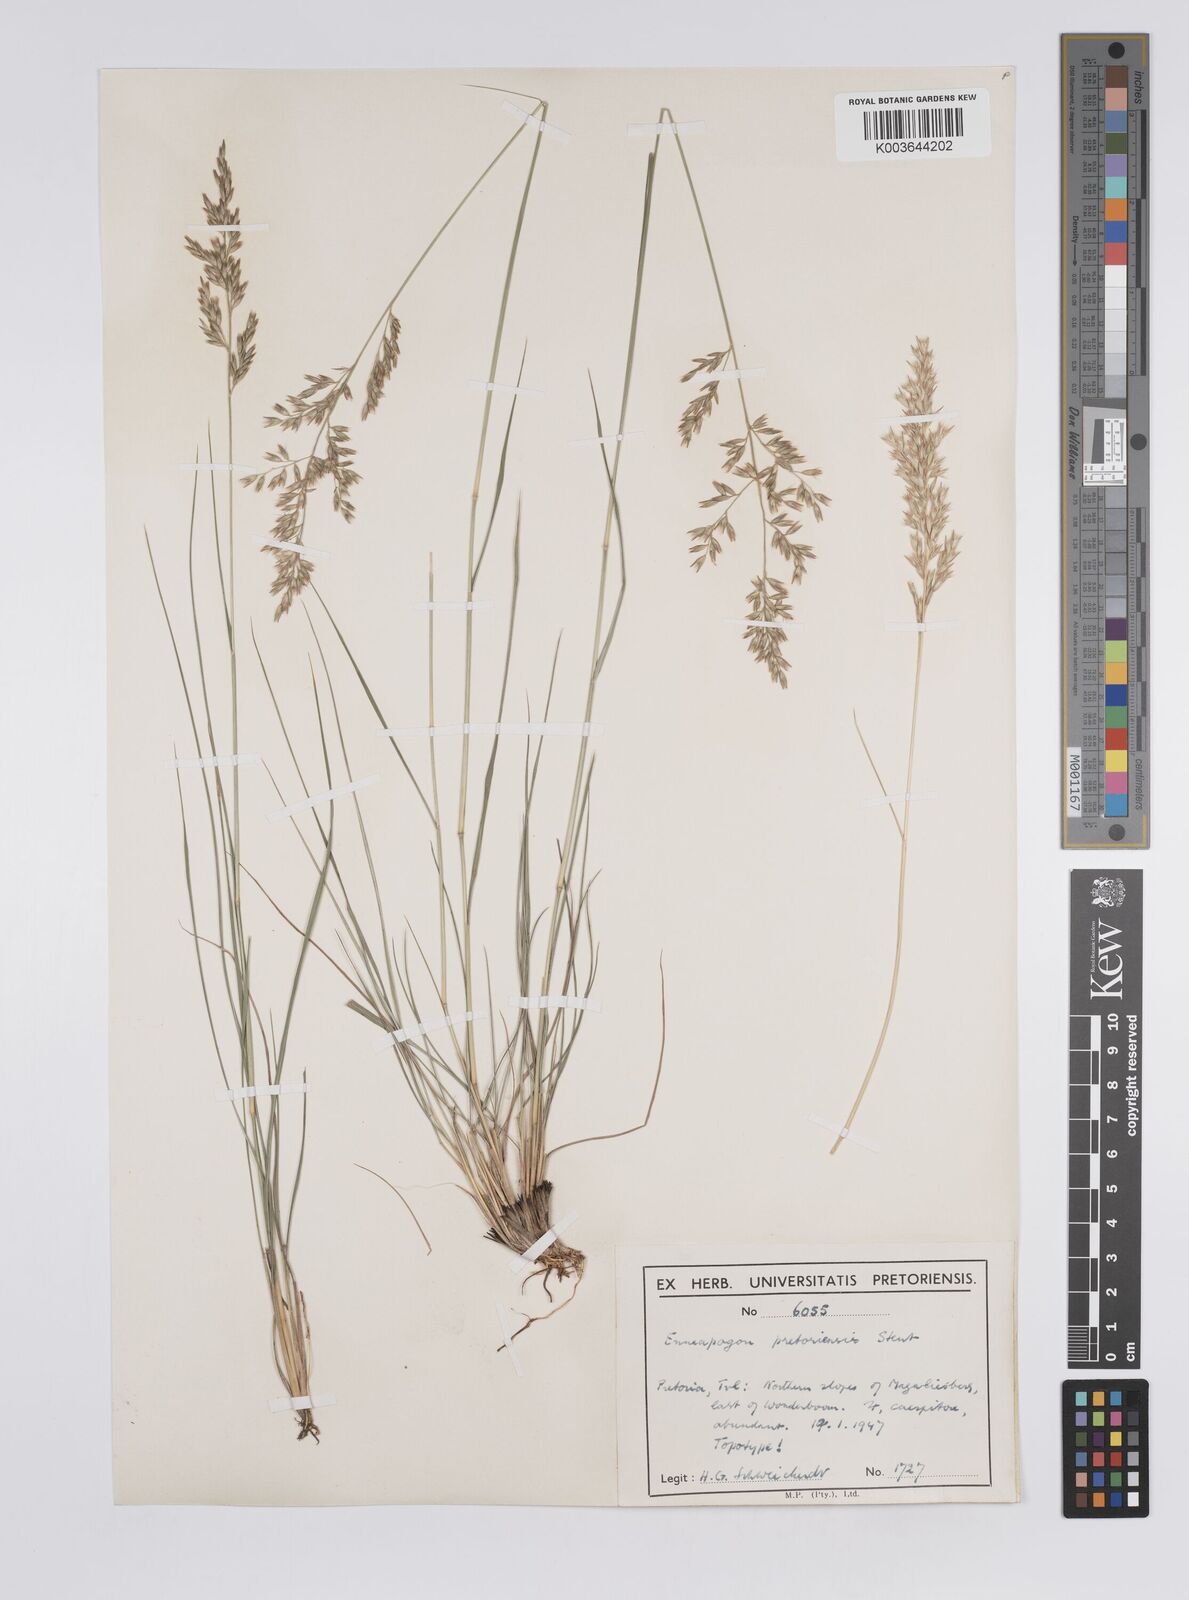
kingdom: Plantae
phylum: Tracheophyta
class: Liliopsida
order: Poales
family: Poaceae
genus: Enneapogon
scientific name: Enneapogon pretoriensis
